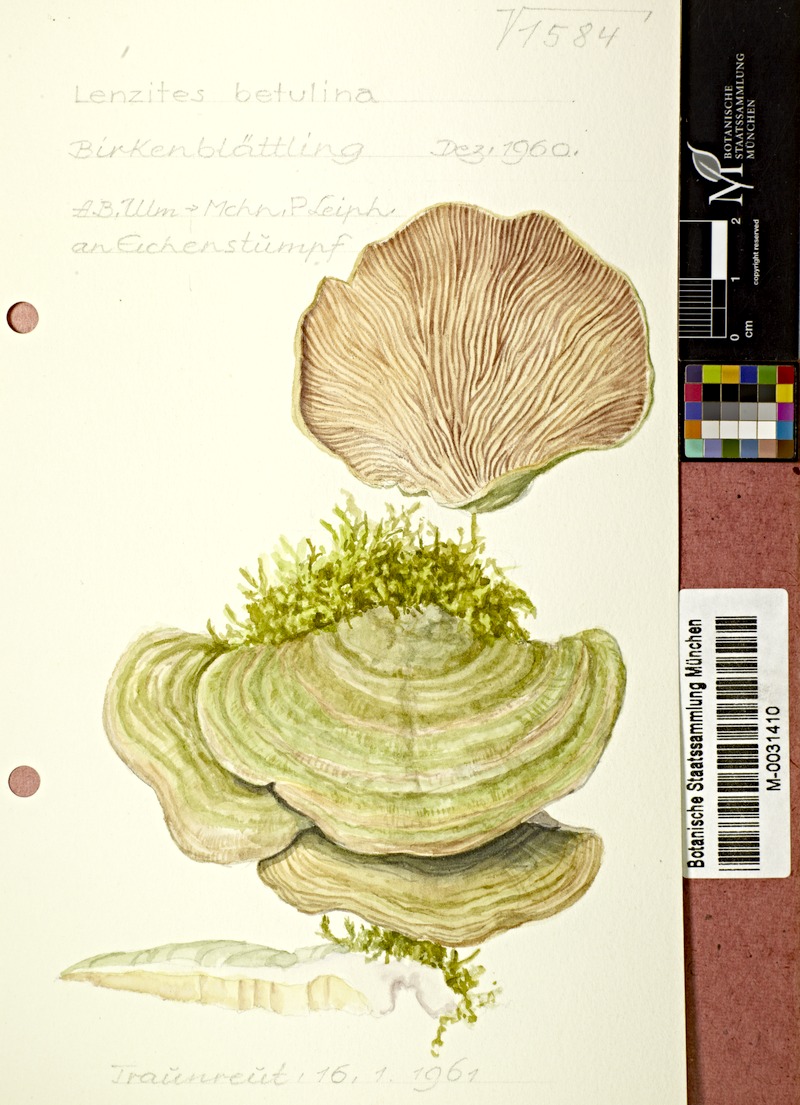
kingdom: Fungi
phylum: Basidiomycota
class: Agaricomycetes
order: Polyporales
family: Polyporaceae
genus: Lenzites
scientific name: Lenzites betulinus
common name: Birch mazegill
